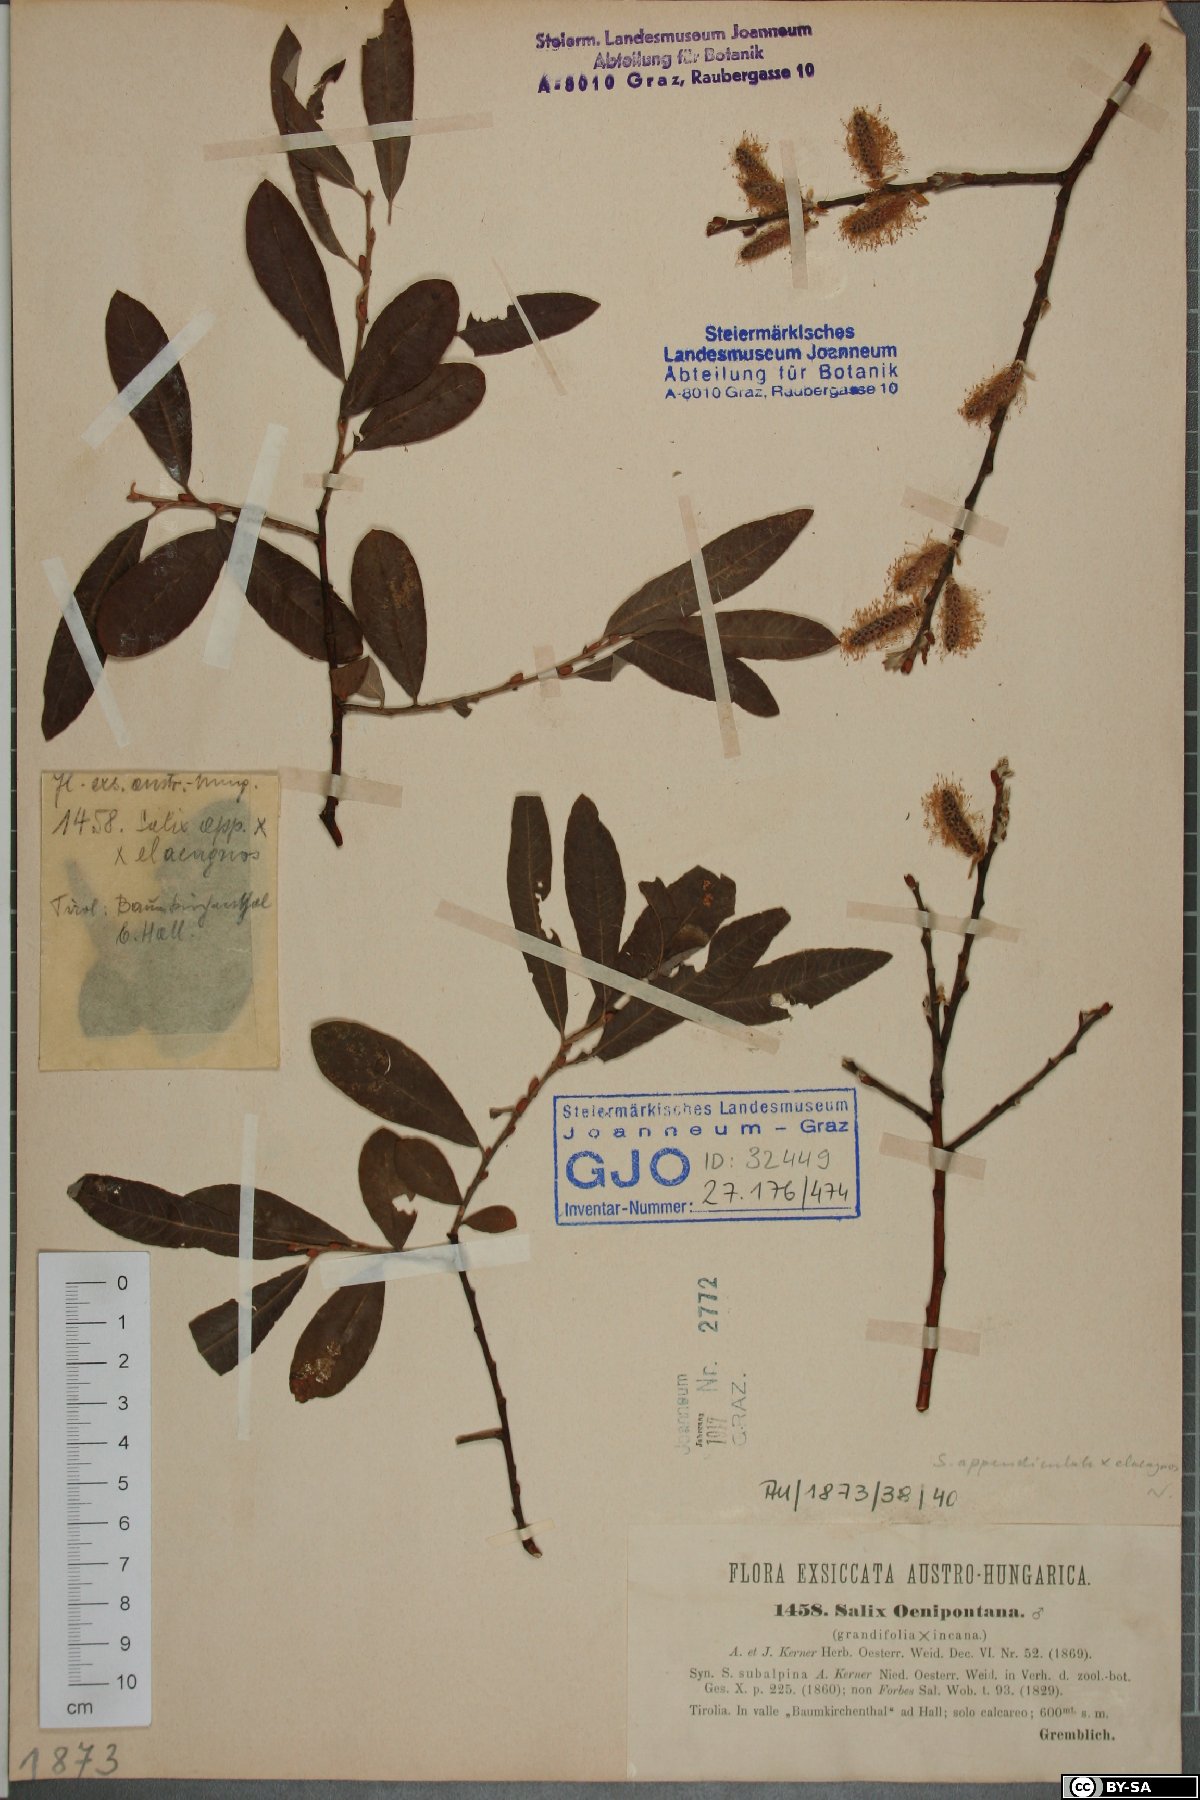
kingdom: Plantae
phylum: Tracheophyta
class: Magnoliopsida
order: Malpighiales
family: Salicaceae
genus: Salix
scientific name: Salix intermedia
